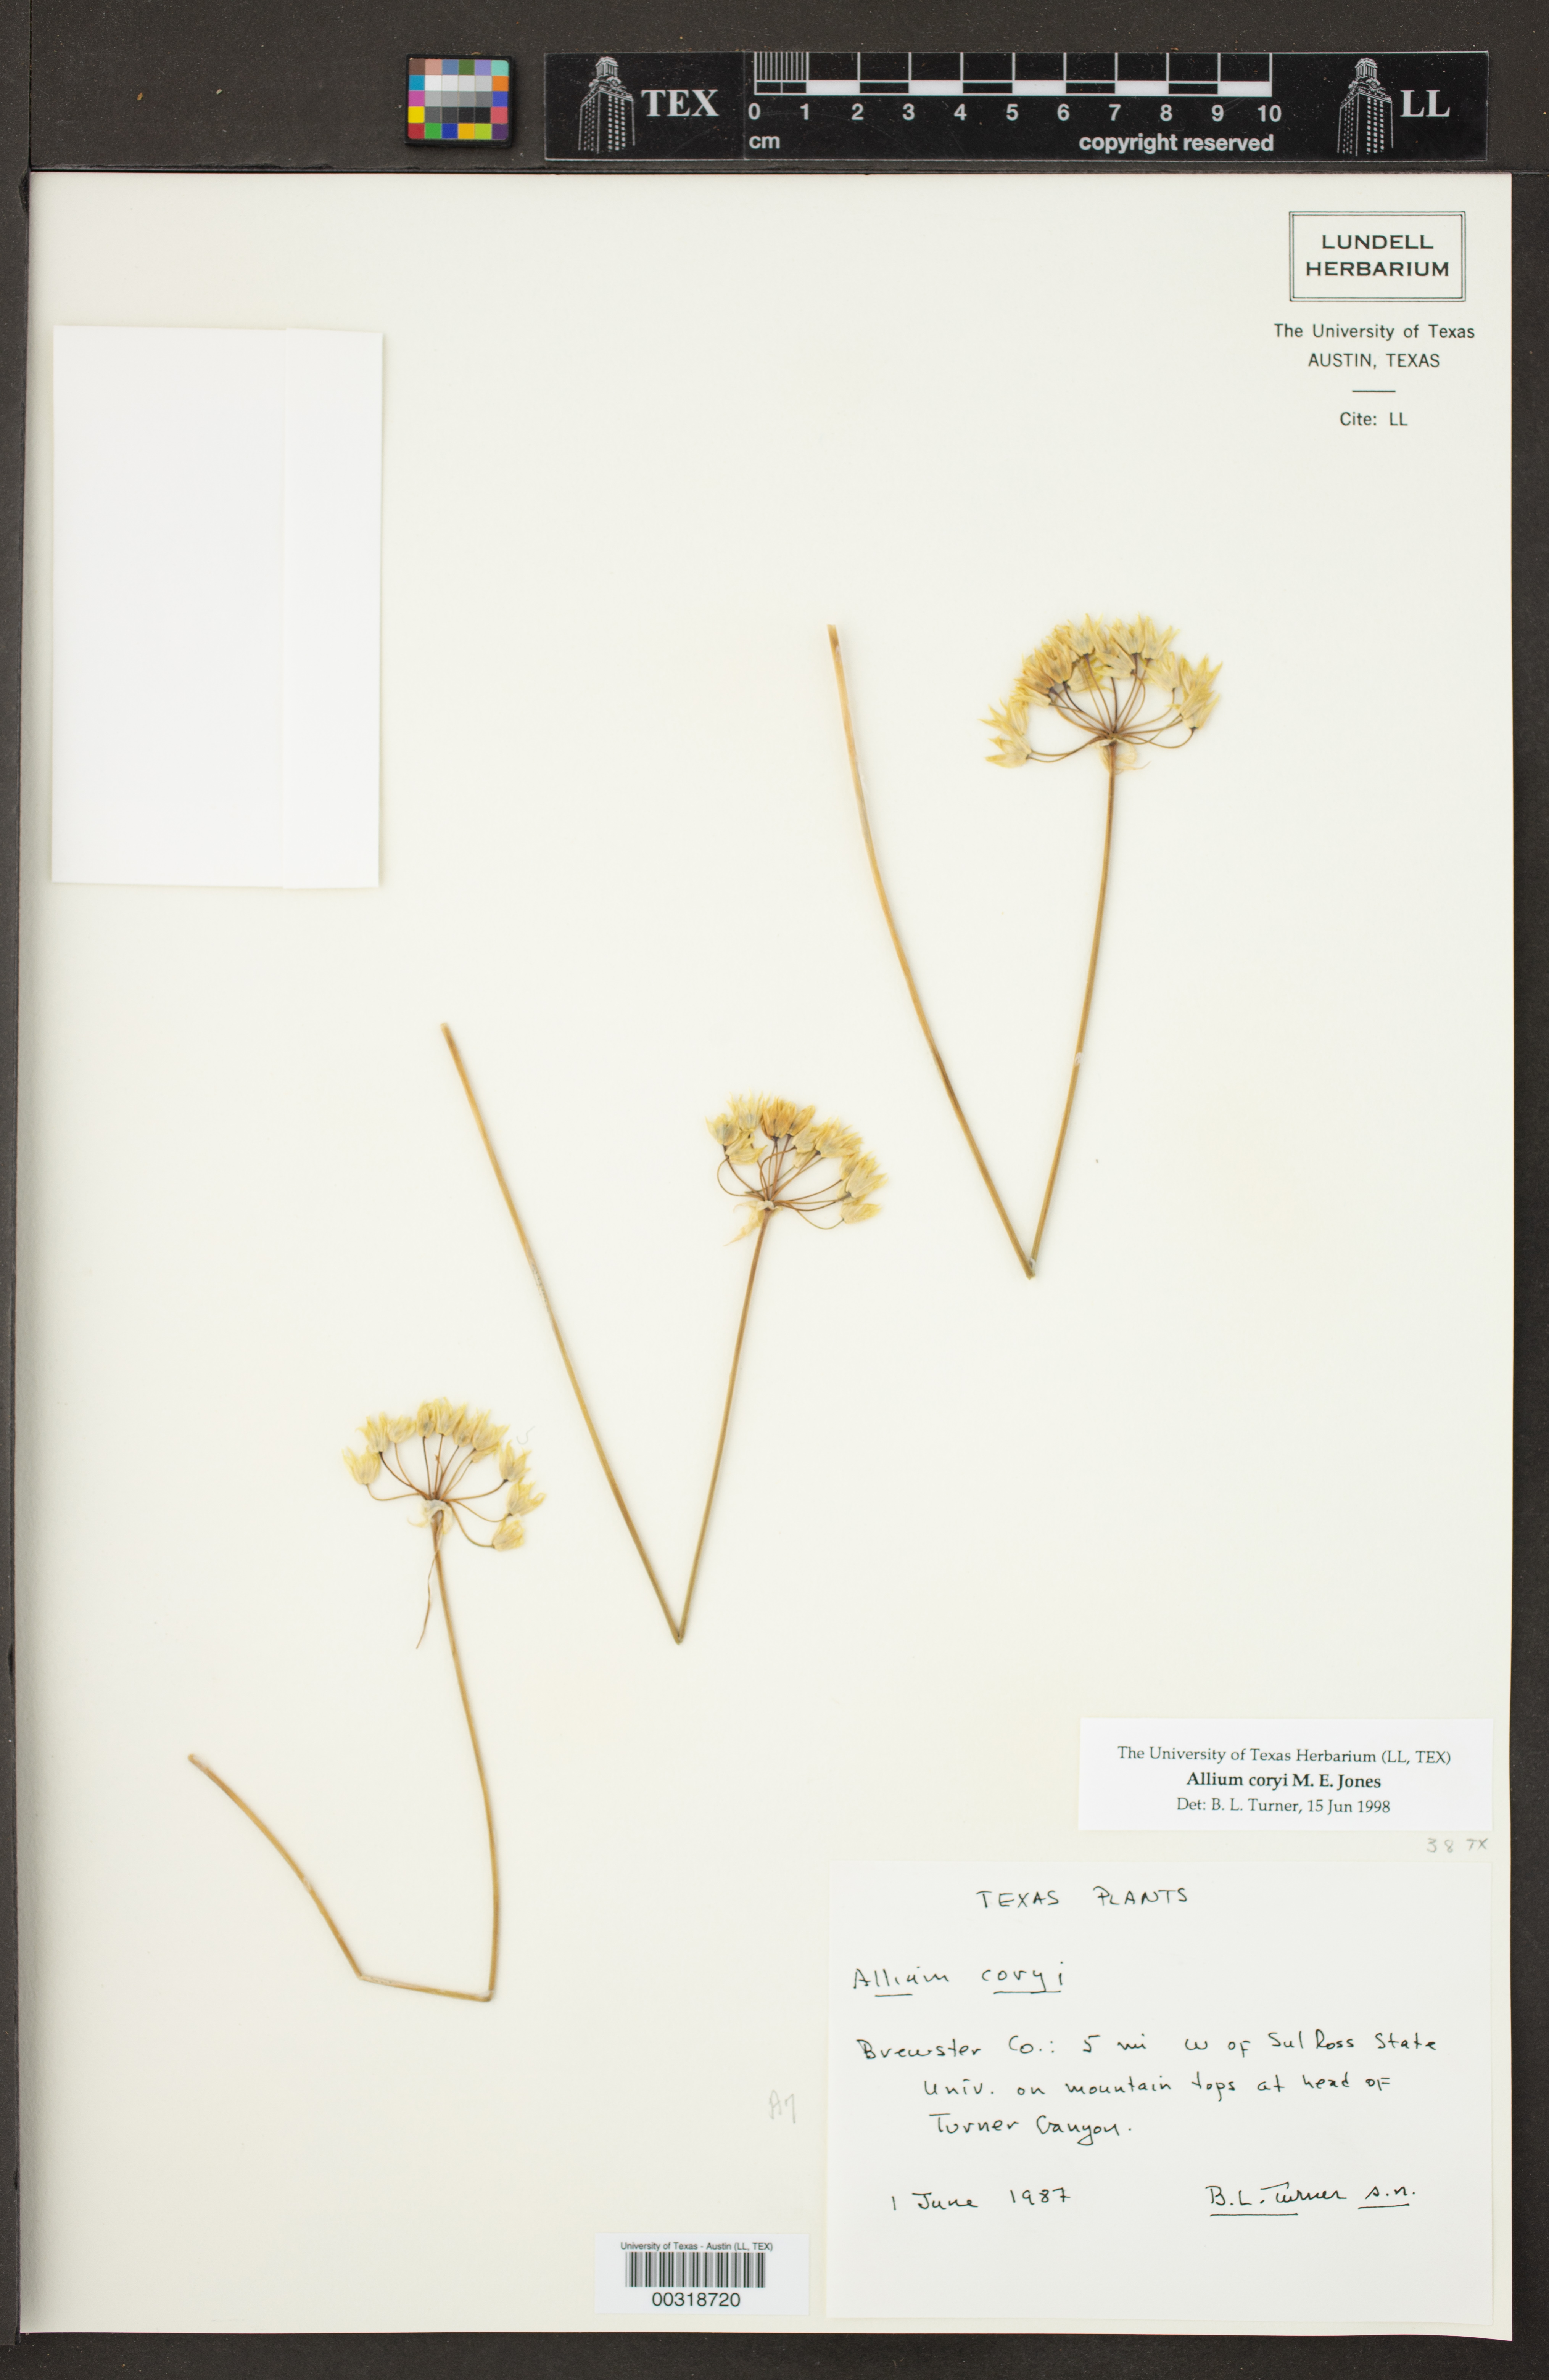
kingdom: Plantae
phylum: Tracheophyta
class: Liliopsida
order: Asparagales
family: Amaryllidaceae
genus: Allium
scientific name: Allium coryi
